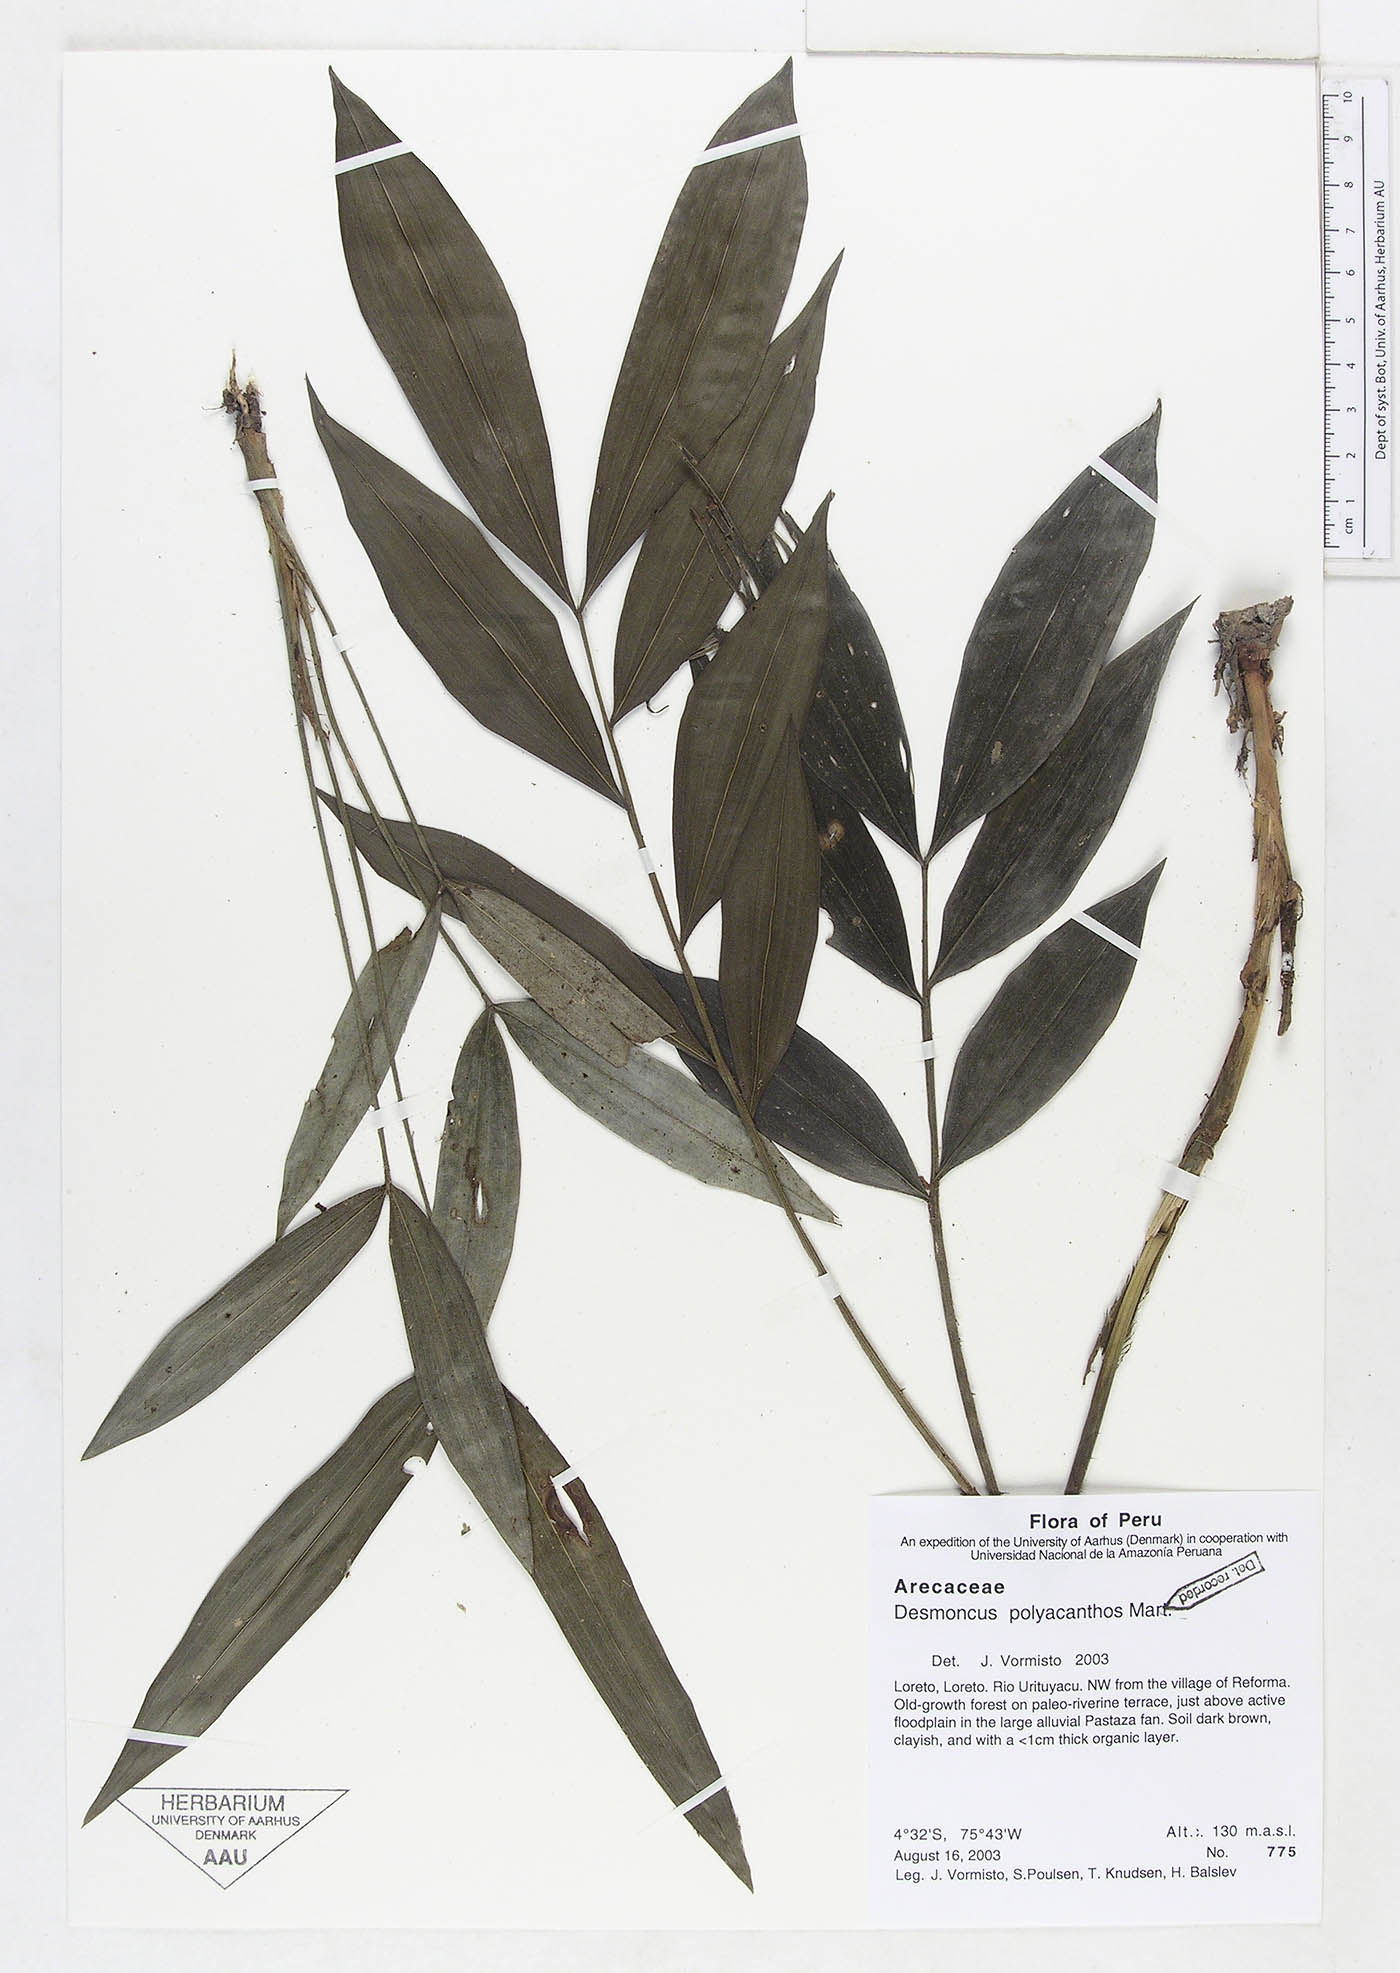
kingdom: Plantae
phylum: Tracheophyta
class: Liliopsida
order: Arecales
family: Arecaceae
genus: Desmoncus
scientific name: Desmoncus polyacanthos
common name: Suriname bramble palm
